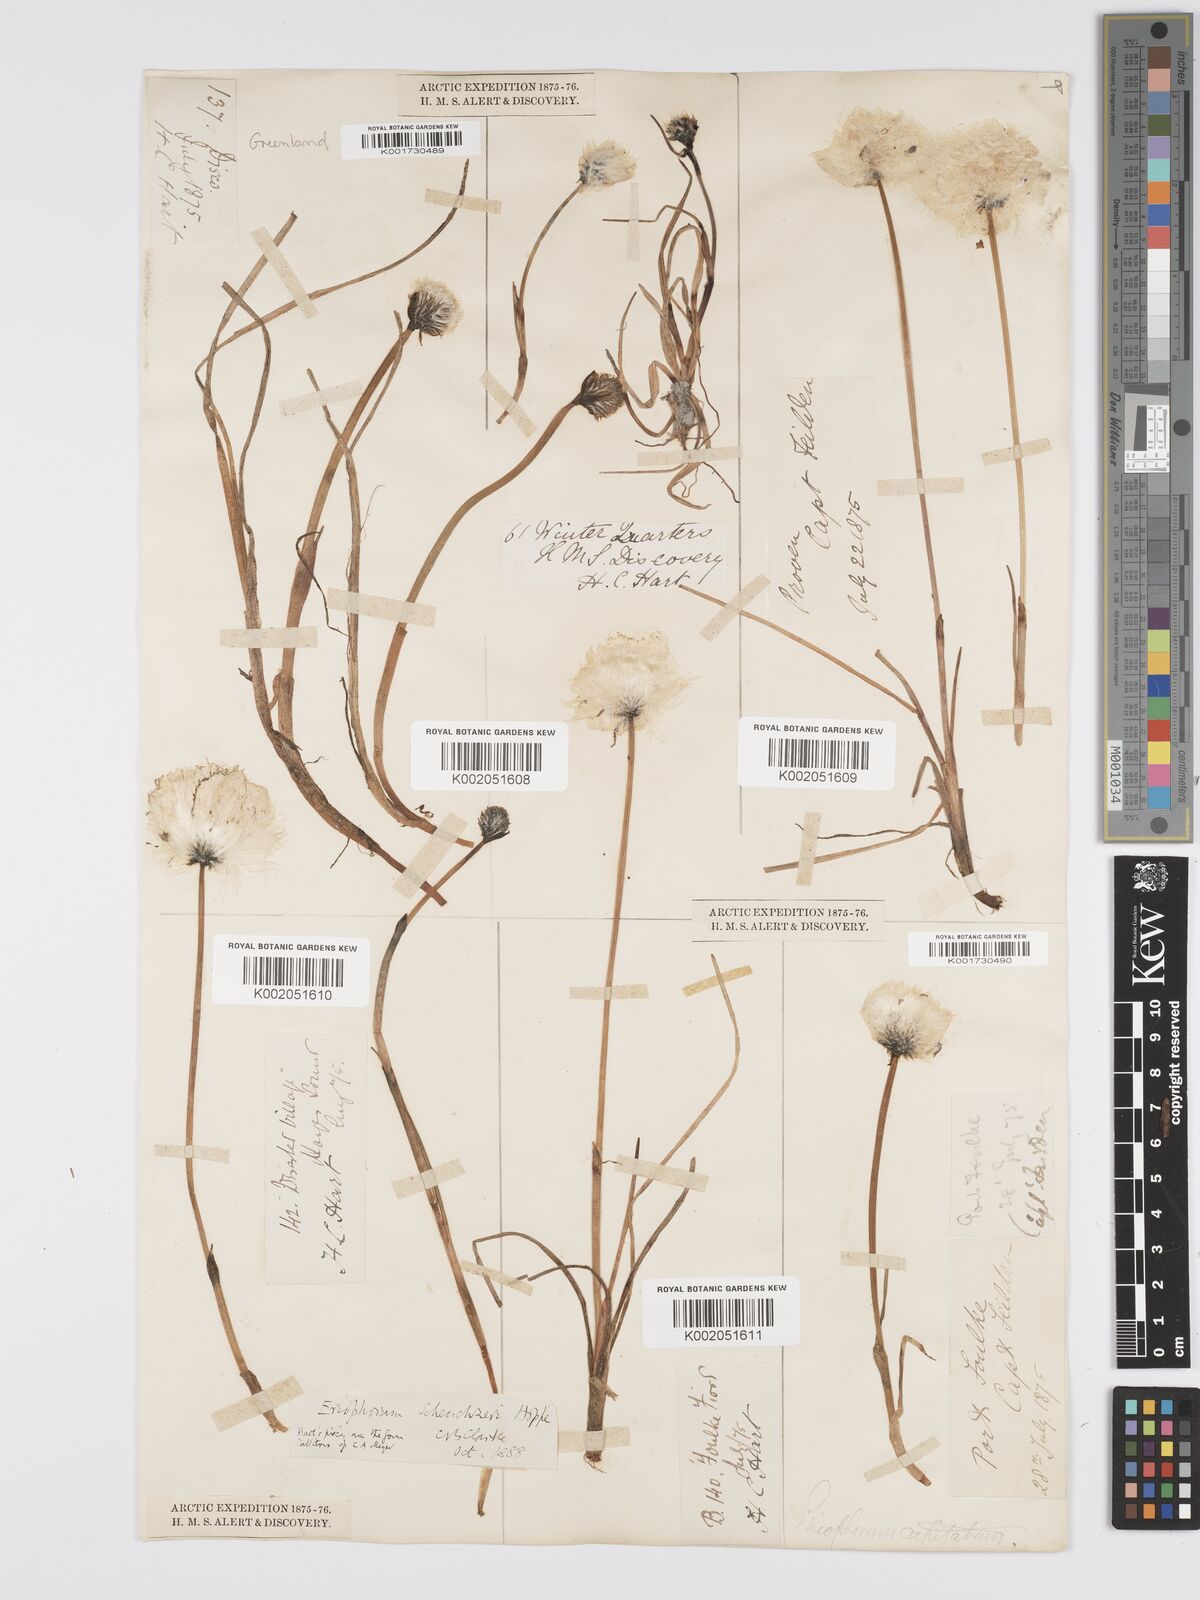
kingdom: Plantae
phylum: Tracheophyta
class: Liliopsida
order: Poales
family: Cyperaceae
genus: Eriophorum
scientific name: Eriophorum scheuchzeri
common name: Scheuchzer's cottongrass
